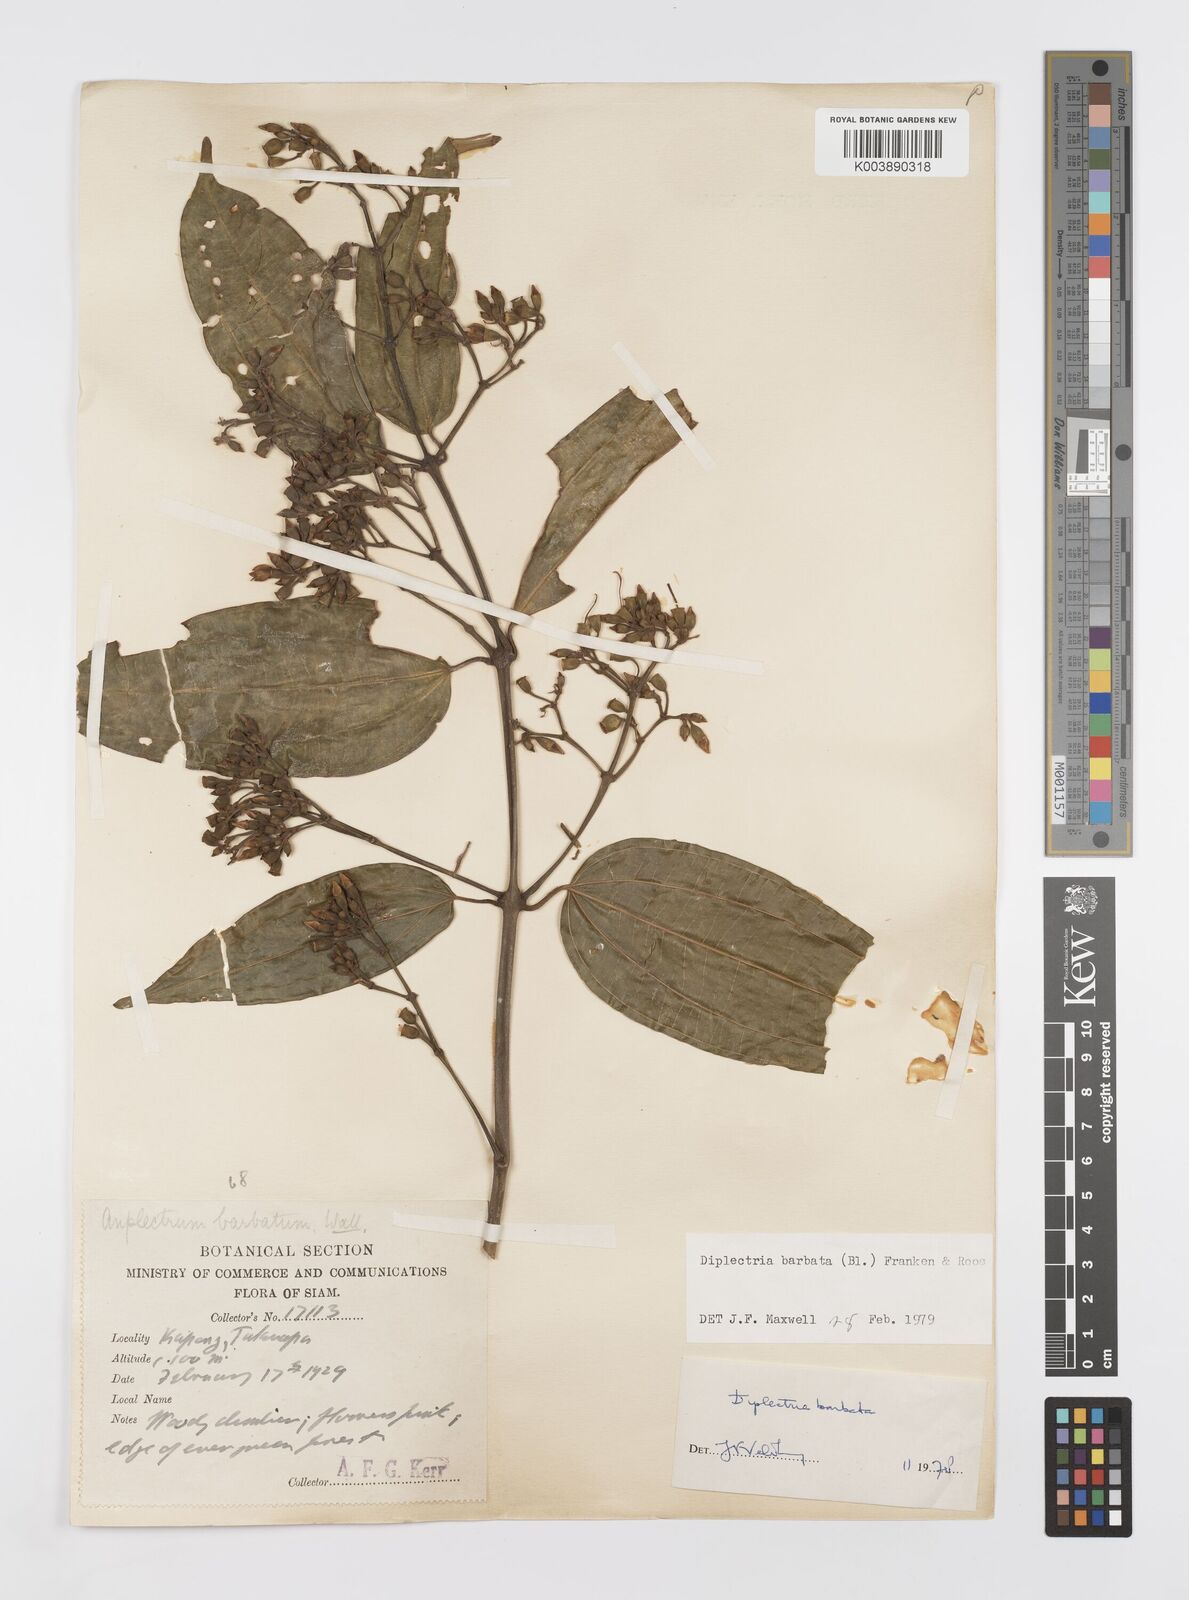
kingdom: Plantae
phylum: Tracheophyta
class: Magnoliopsida
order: Myrtales
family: Melastomataceae
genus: Diplectria
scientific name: Diplectria barbata
